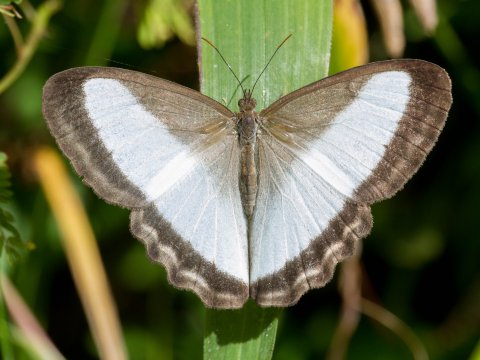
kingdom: Animalia
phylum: Arthropoda
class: Insecta
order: Lepidoptera
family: Nymphalidae
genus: Oressinoma
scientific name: Oressinoma typhla
